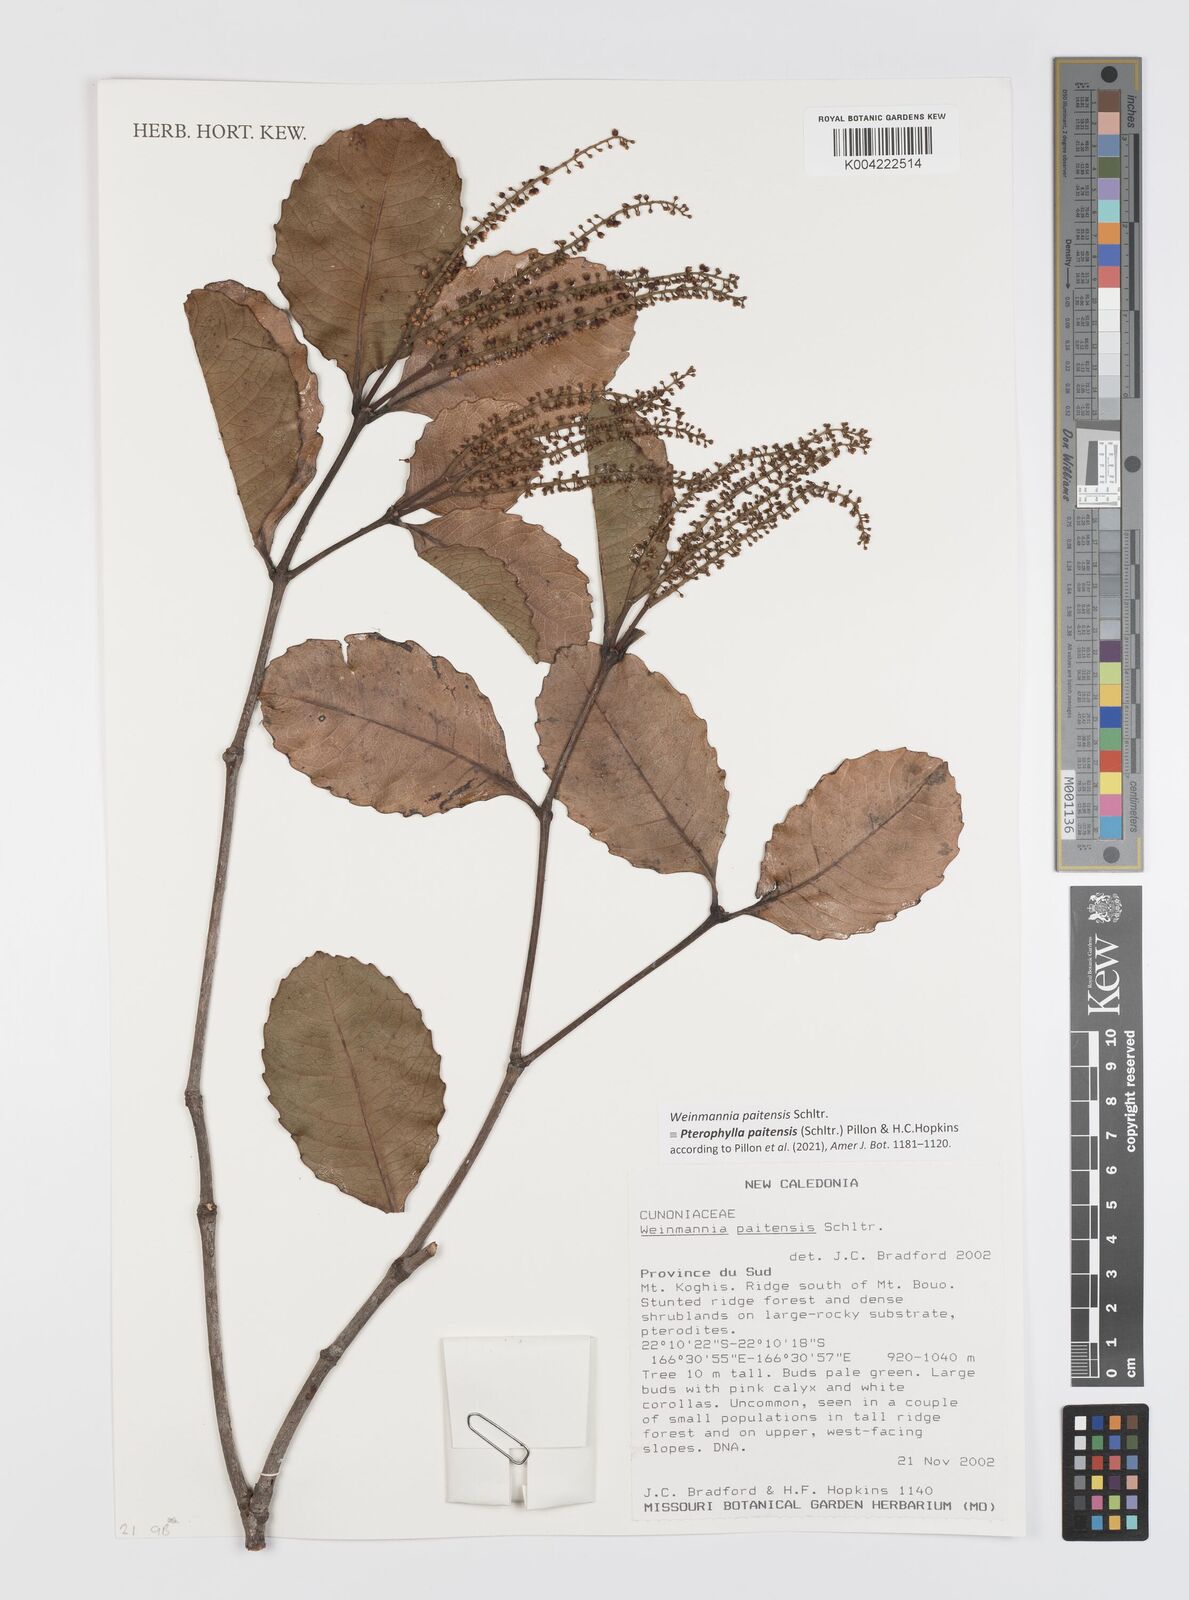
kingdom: Plantae
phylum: Tracheophyta
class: Magnoliopsida
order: Oxalidales
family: Cunoniaceae
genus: Pterophylla
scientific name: Pterophylla paitensis
